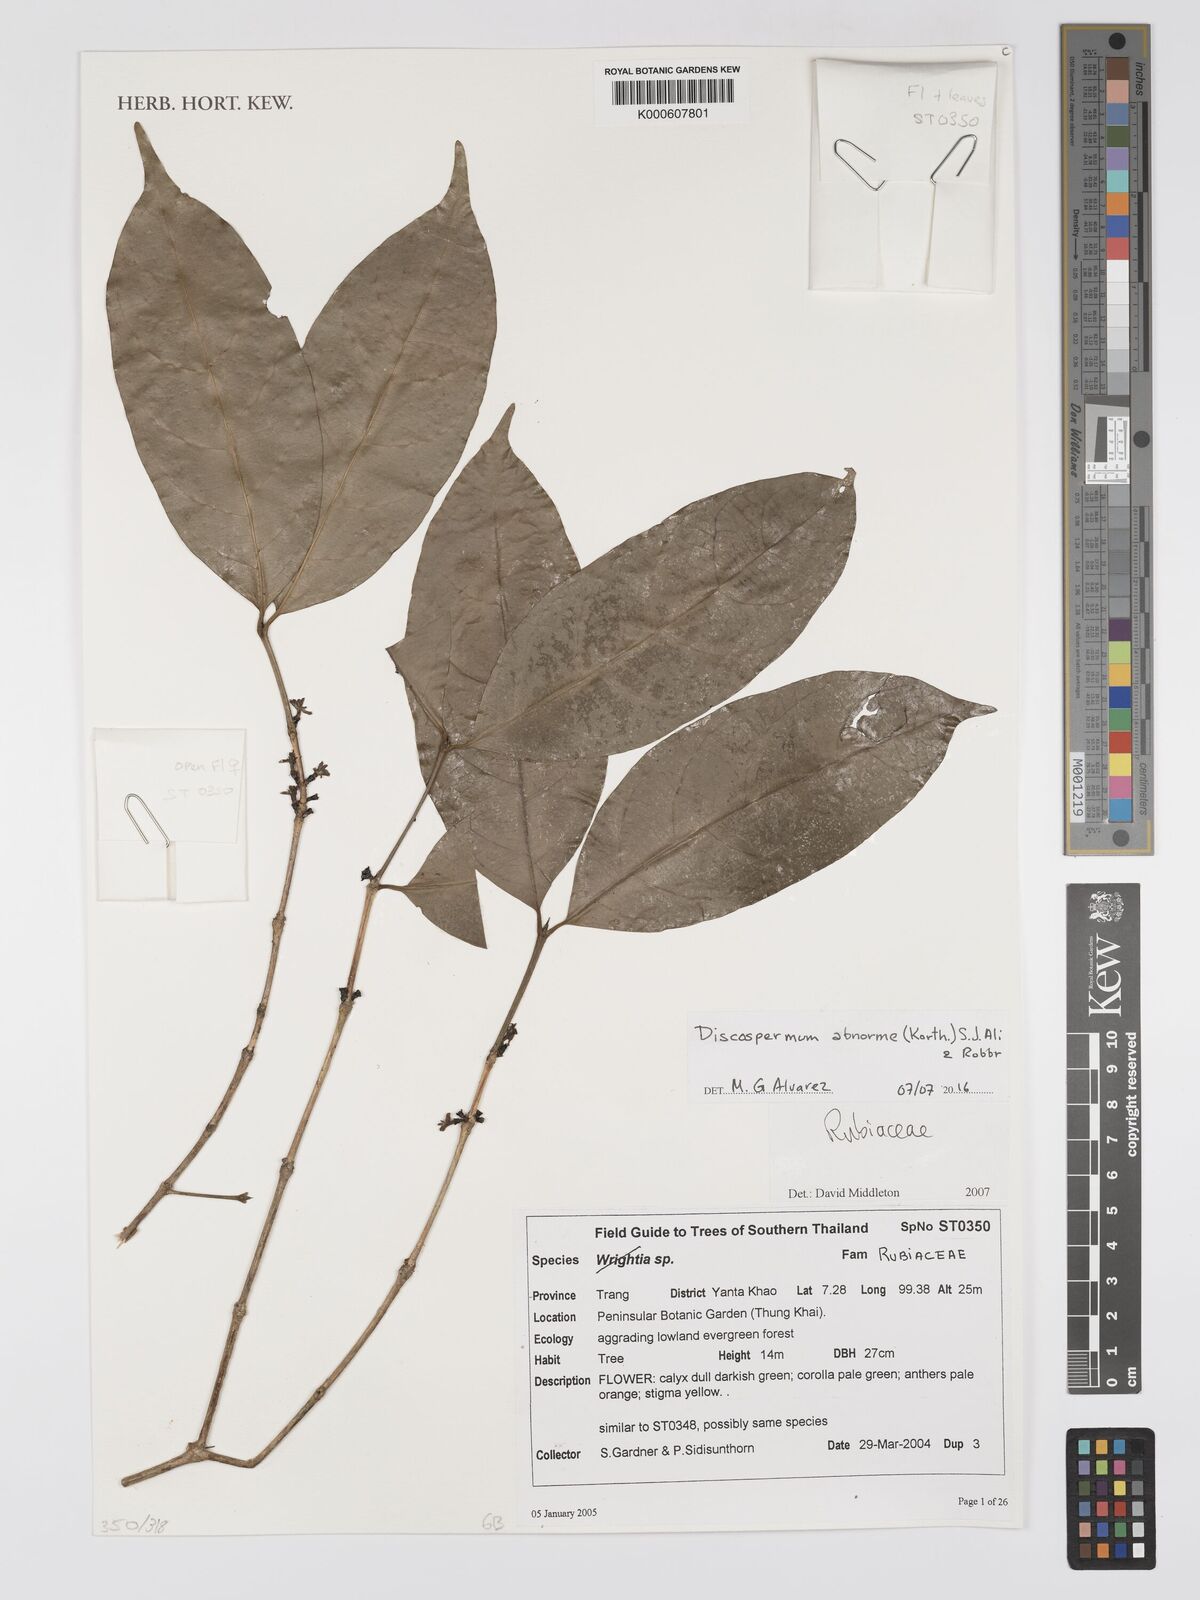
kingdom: Plantae
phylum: Tracheophyta
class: Magnoliopsida
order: Gentianales
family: Rubiaceae
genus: Discospermum
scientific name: Discospermum abnorme
